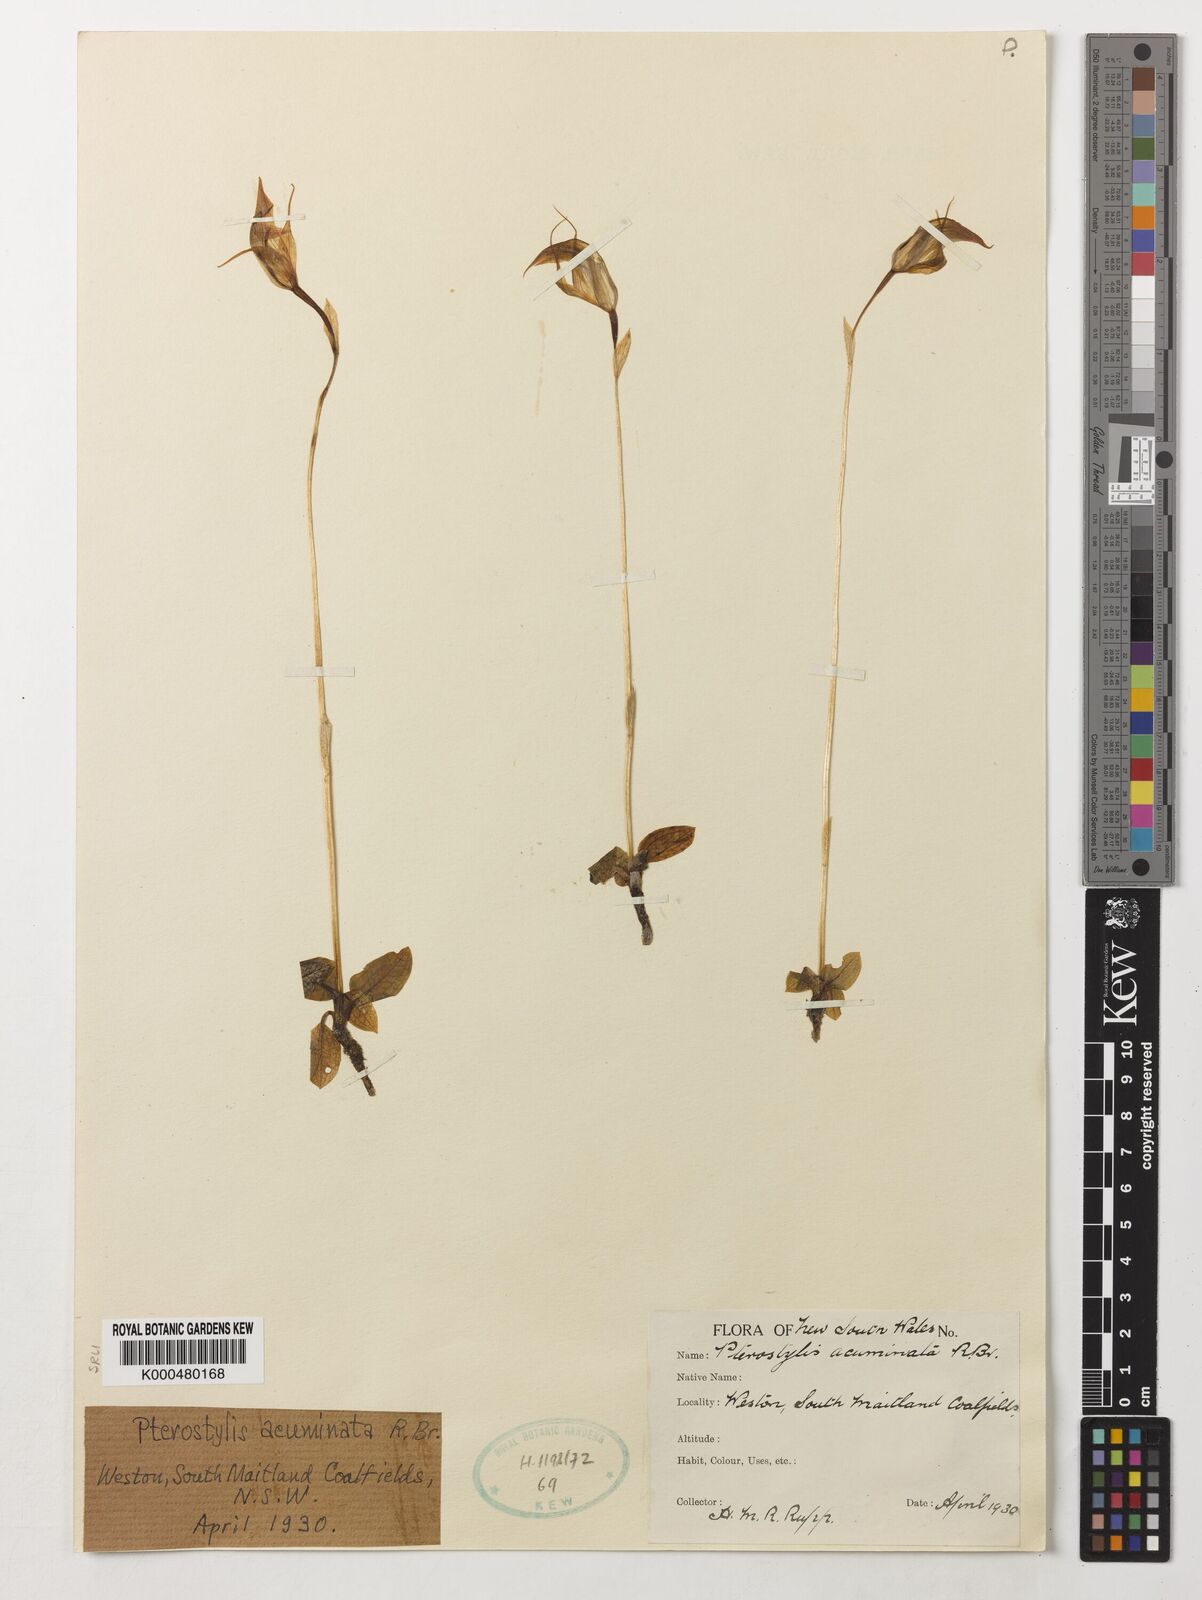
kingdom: Plantae
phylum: Tracheophyta
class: Liliopsida
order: Asparagales
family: Orchidaceae
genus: Pterostylis
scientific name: Pterostylis concinna
